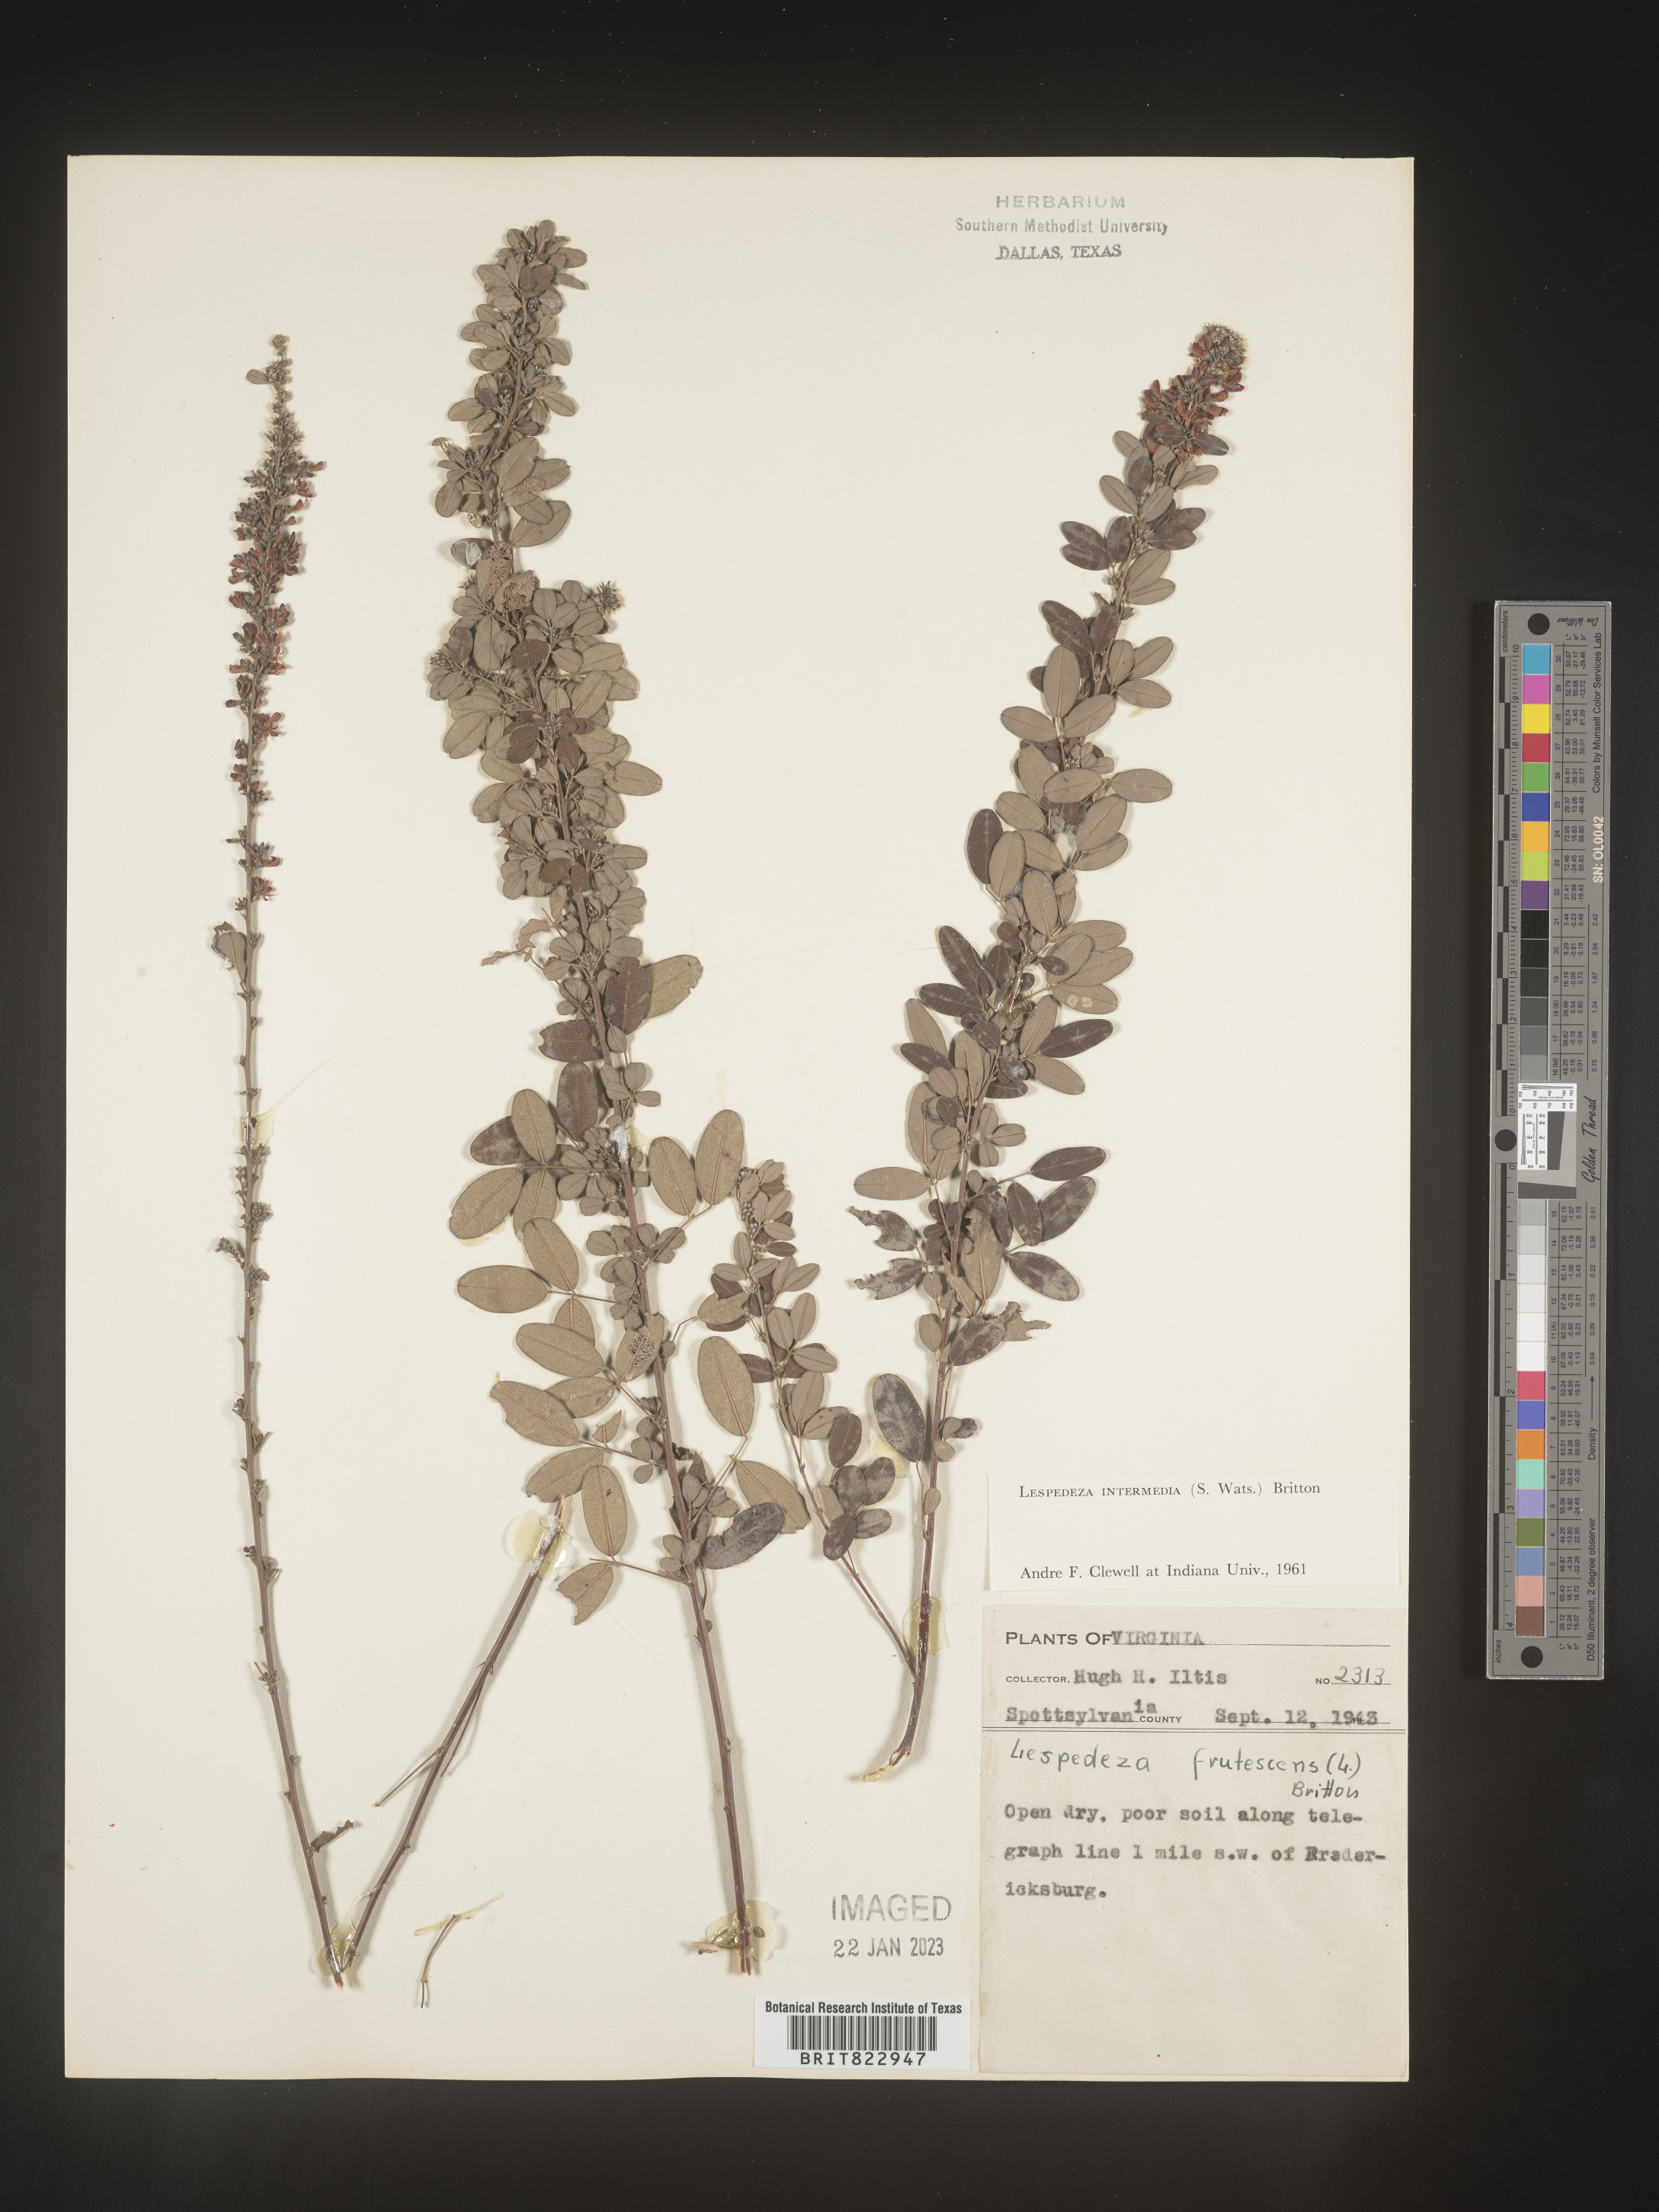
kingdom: Plantae
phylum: Tracheophyta
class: Magnoliopsida
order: Fabales
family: Fabaceae
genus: Lespedeza
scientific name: Lespedeza
